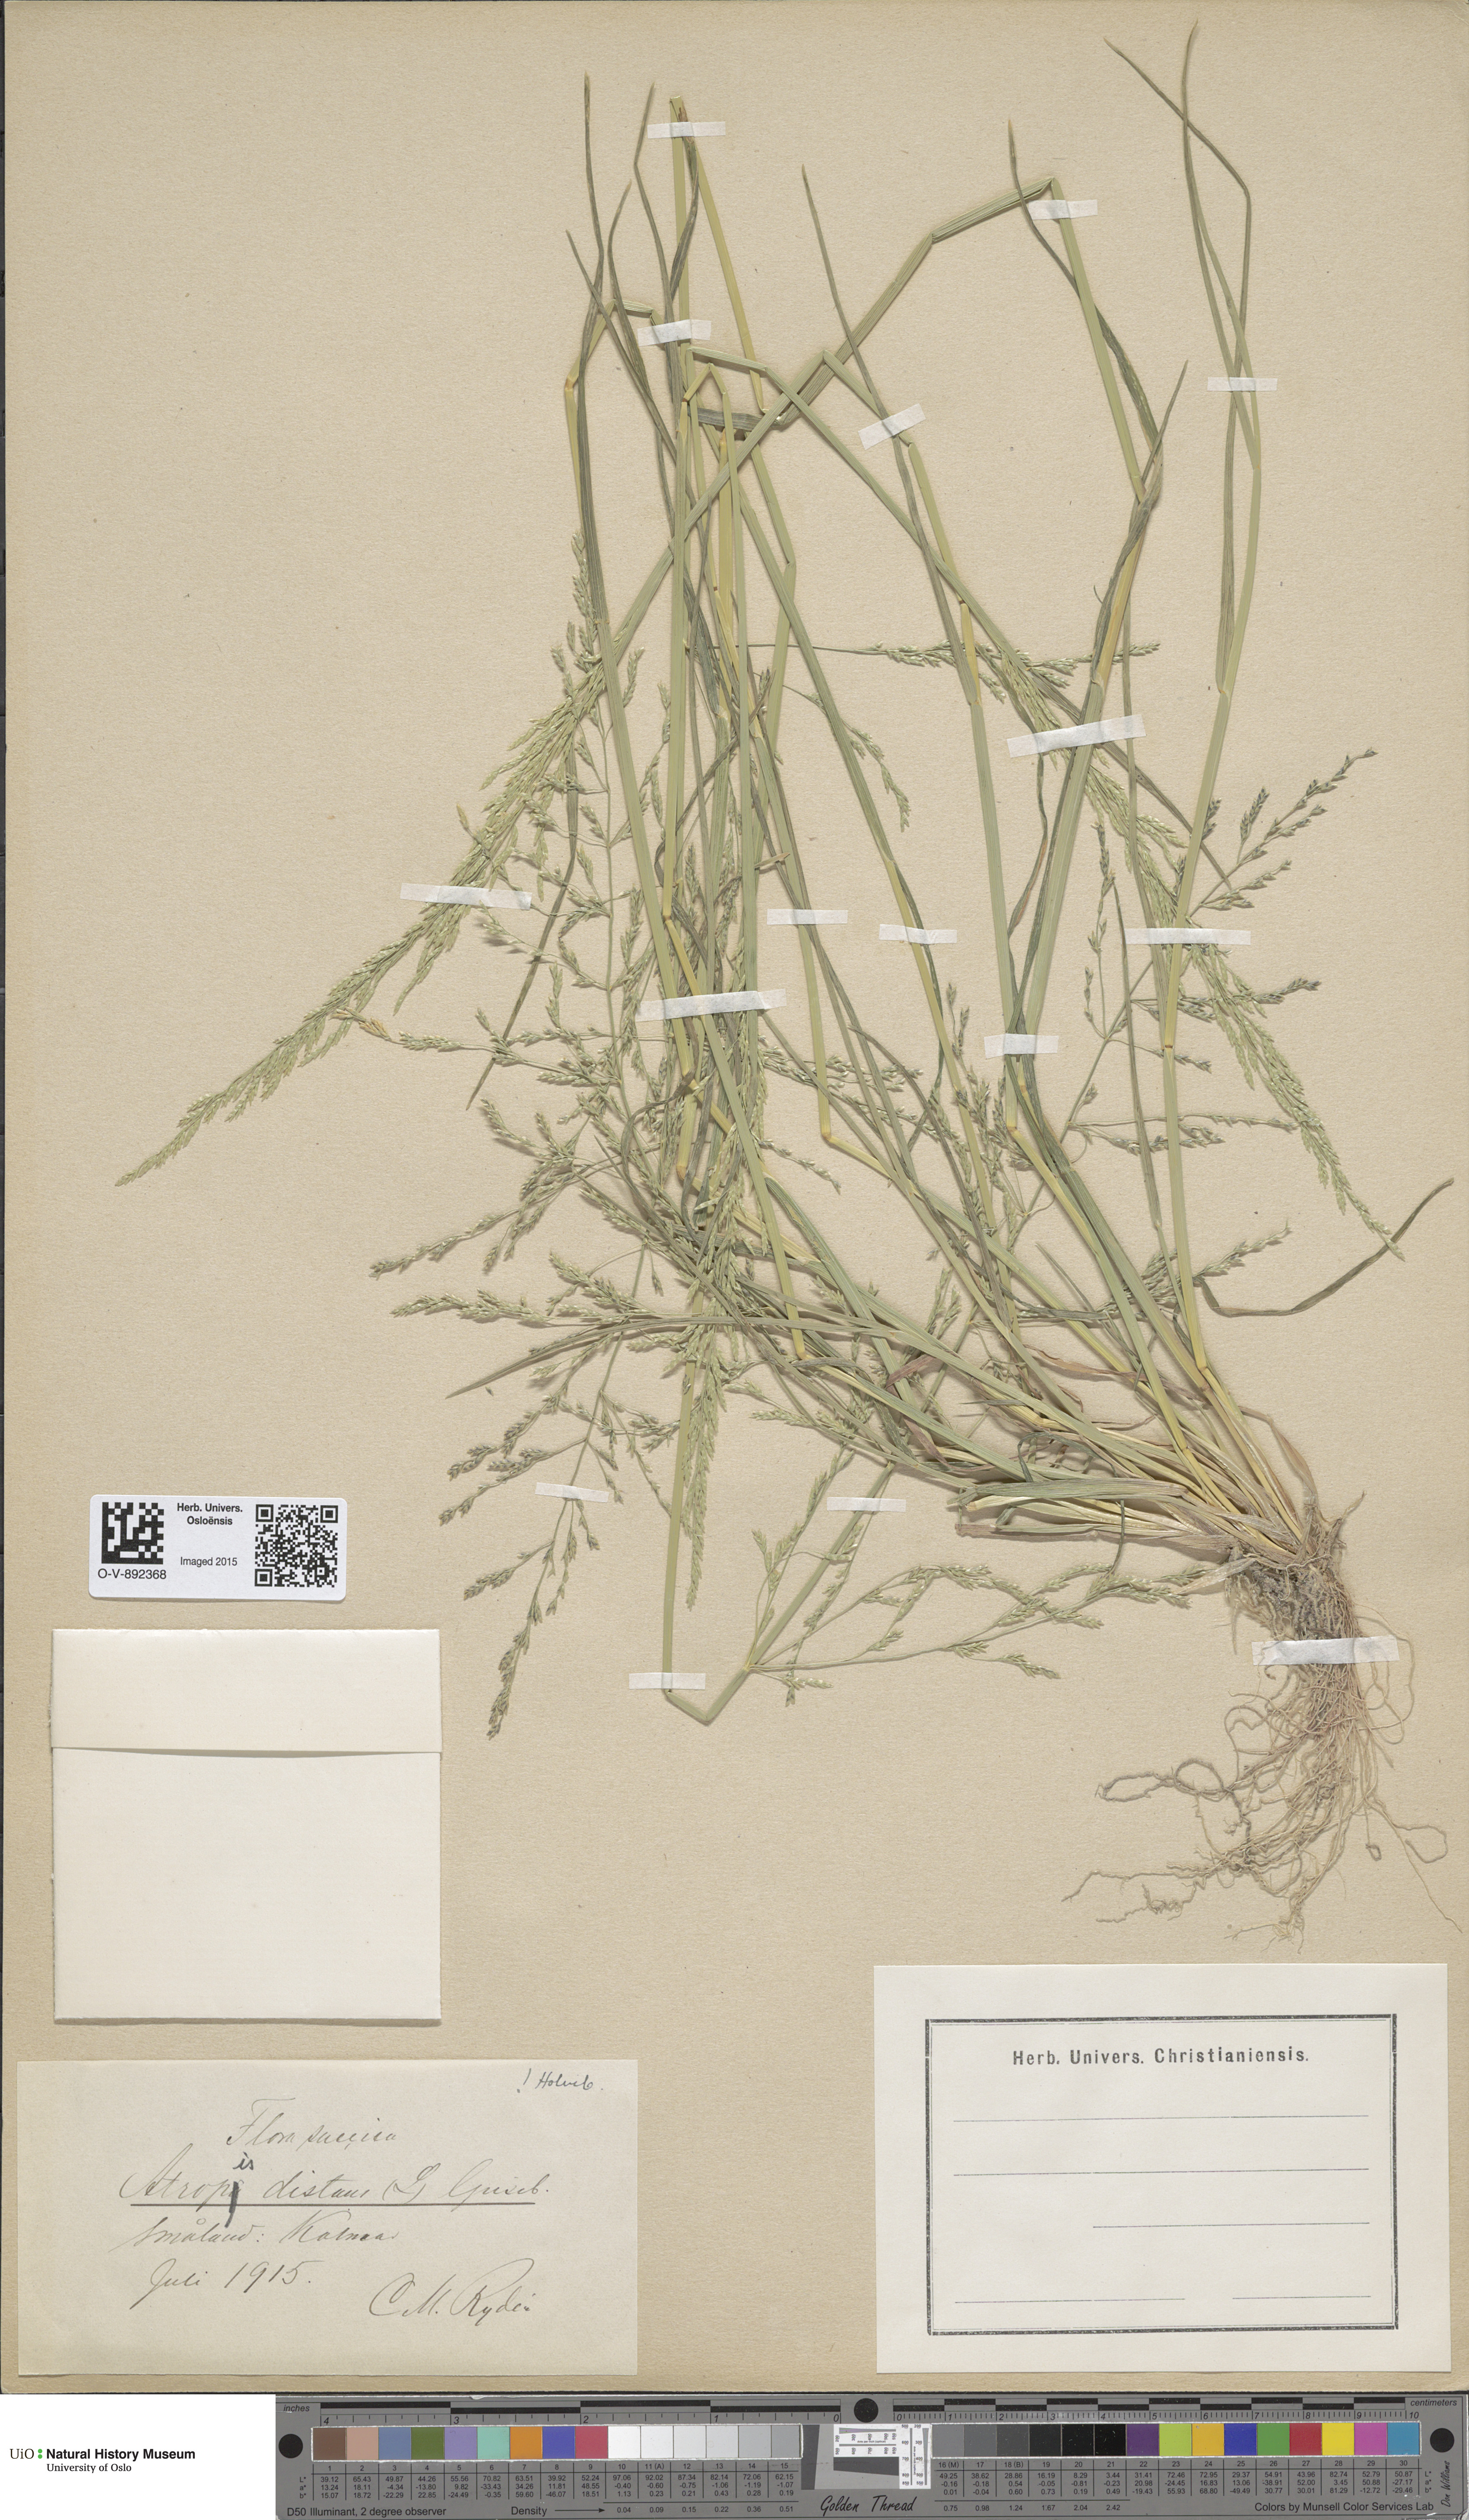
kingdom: Plantae
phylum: Tracheophyta
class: Liliopsida
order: Poales
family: Poaceae
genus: Puccinellia
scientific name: Puccinellia distans
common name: Weeping alkaligrass
